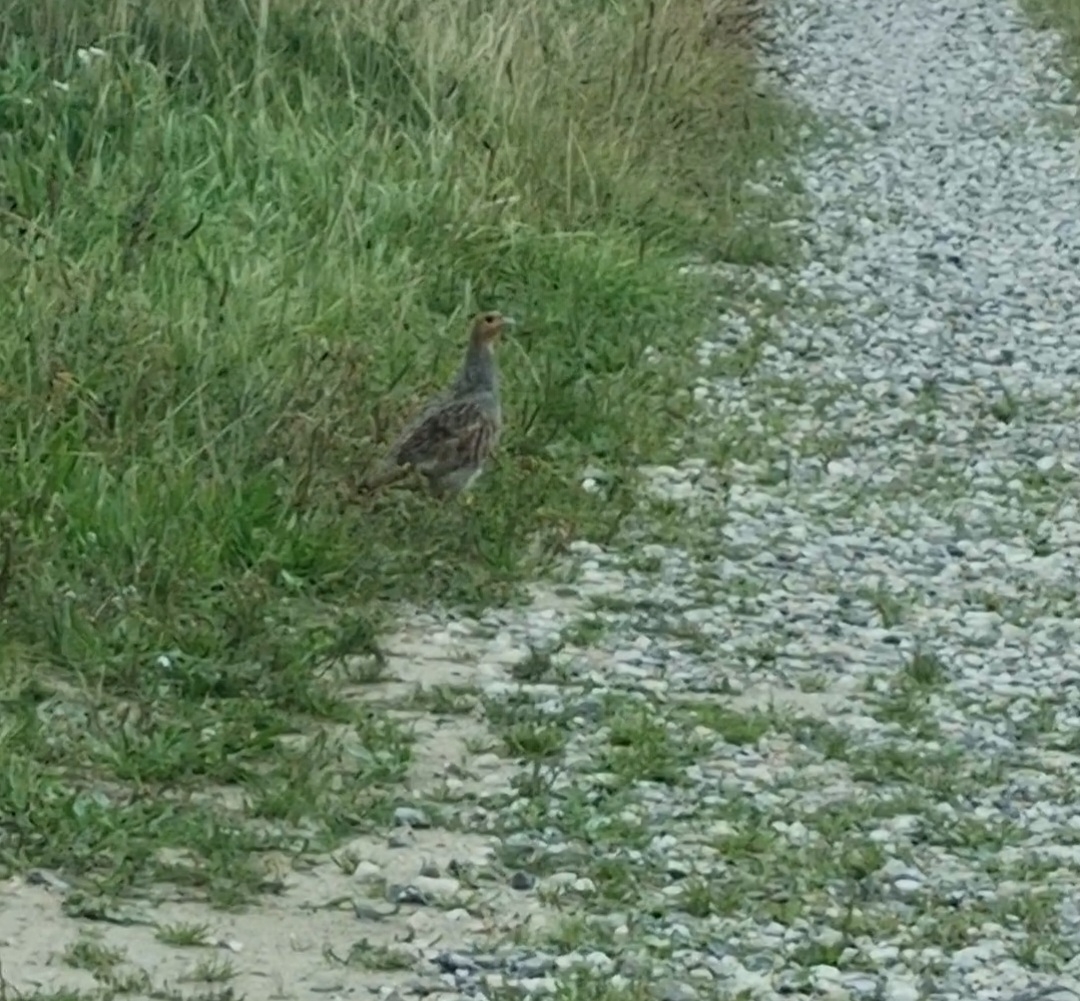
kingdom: Animalia
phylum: Chordata
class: Aves
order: Galliformes
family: Phasianidae
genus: Perdix
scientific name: Perdix perdix
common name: Agerhøne
